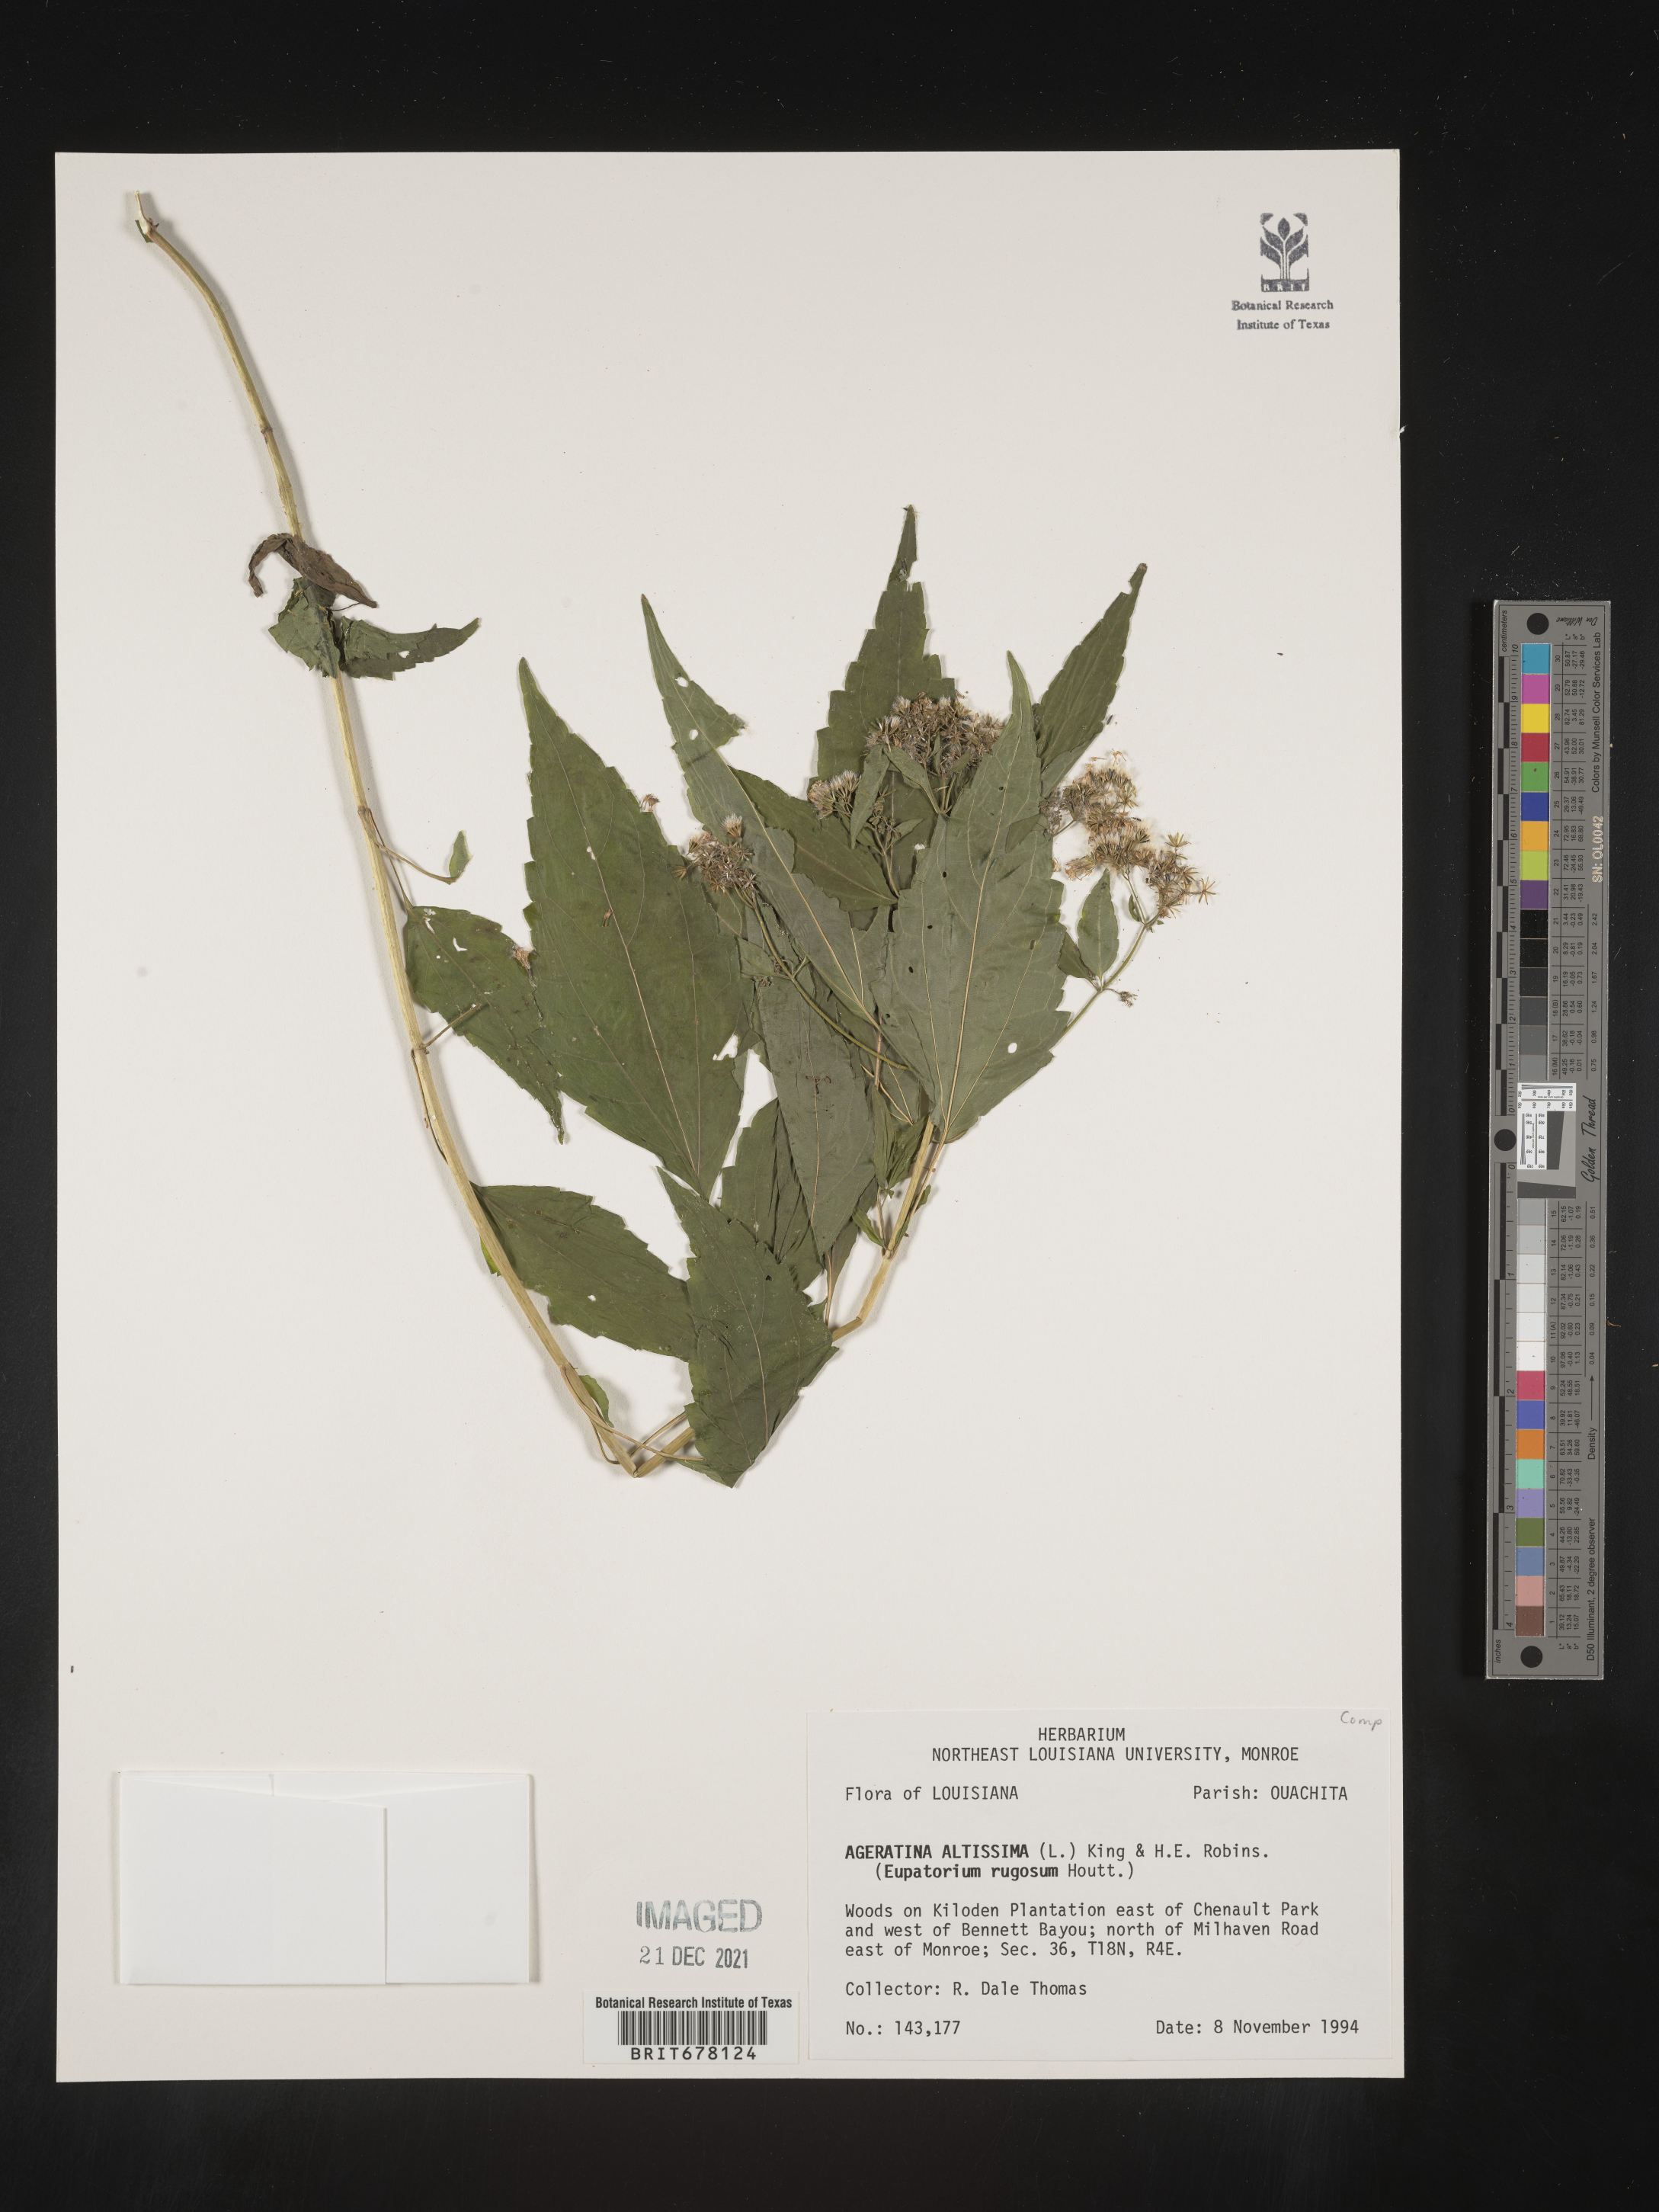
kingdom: Plantae
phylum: Tracheophyta
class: Magnoliopsida
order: Asterales
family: Asteraceae
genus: Eupatorium
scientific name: Eupatorium
